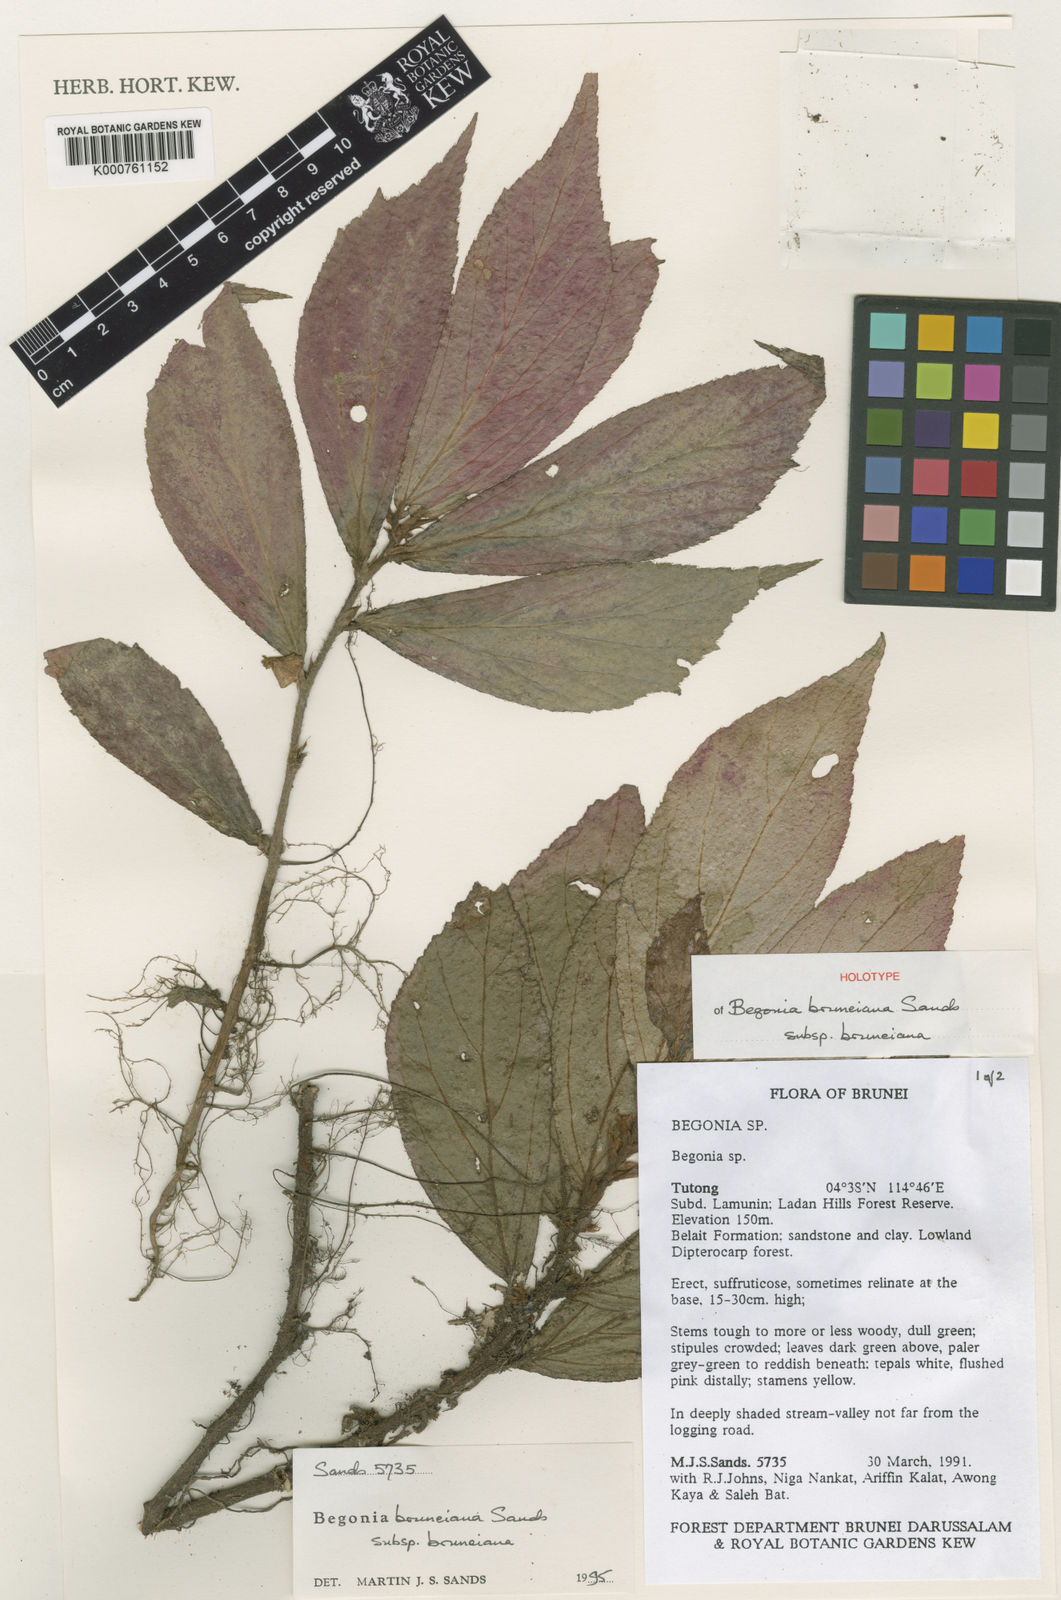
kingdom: Plantae
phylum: Tracheophyta
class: Magnoliopsida
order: Cucurbitales
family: Begoniaceae
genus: Begonia
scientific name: Begonia bruneiana
